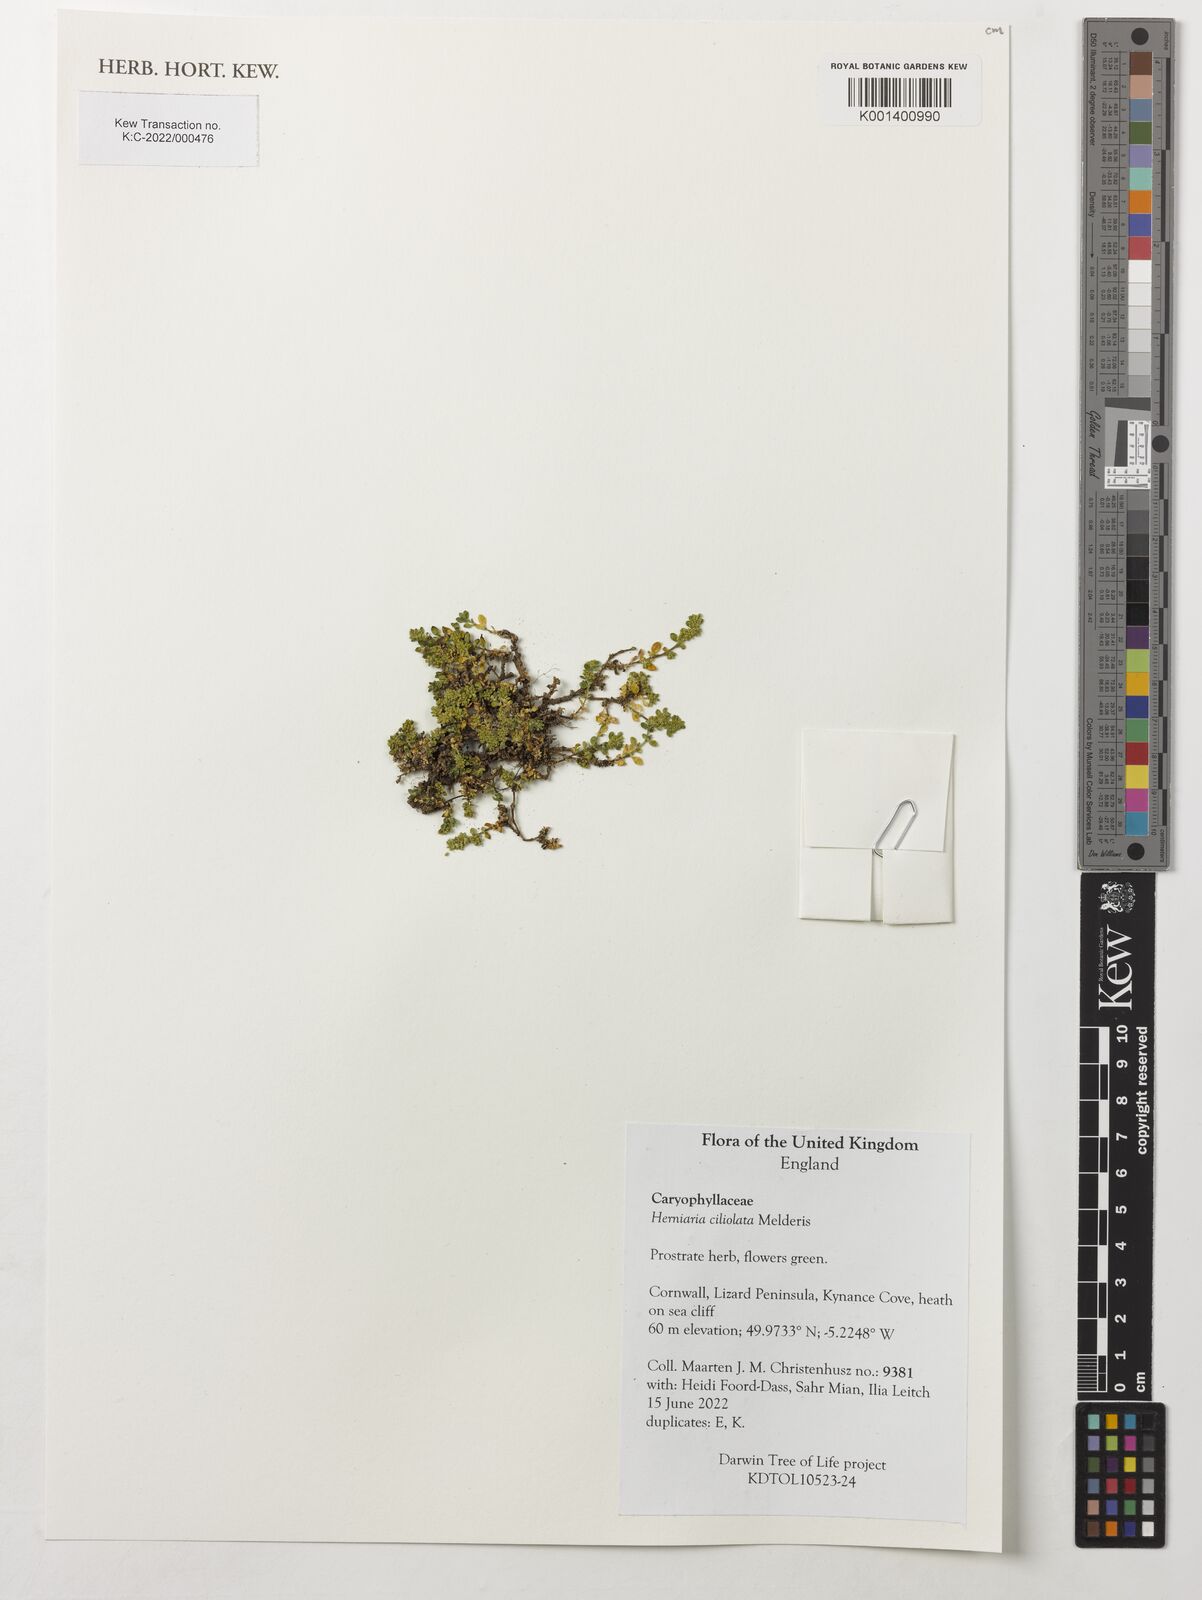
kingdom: Plantae
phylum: Tracheophyta
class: Magnoliopsida
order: Caryophyllales
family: Caryophyllaceae
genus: Herniaria
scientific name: Herniaria ciliolata
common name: Fringed rupture-wort
